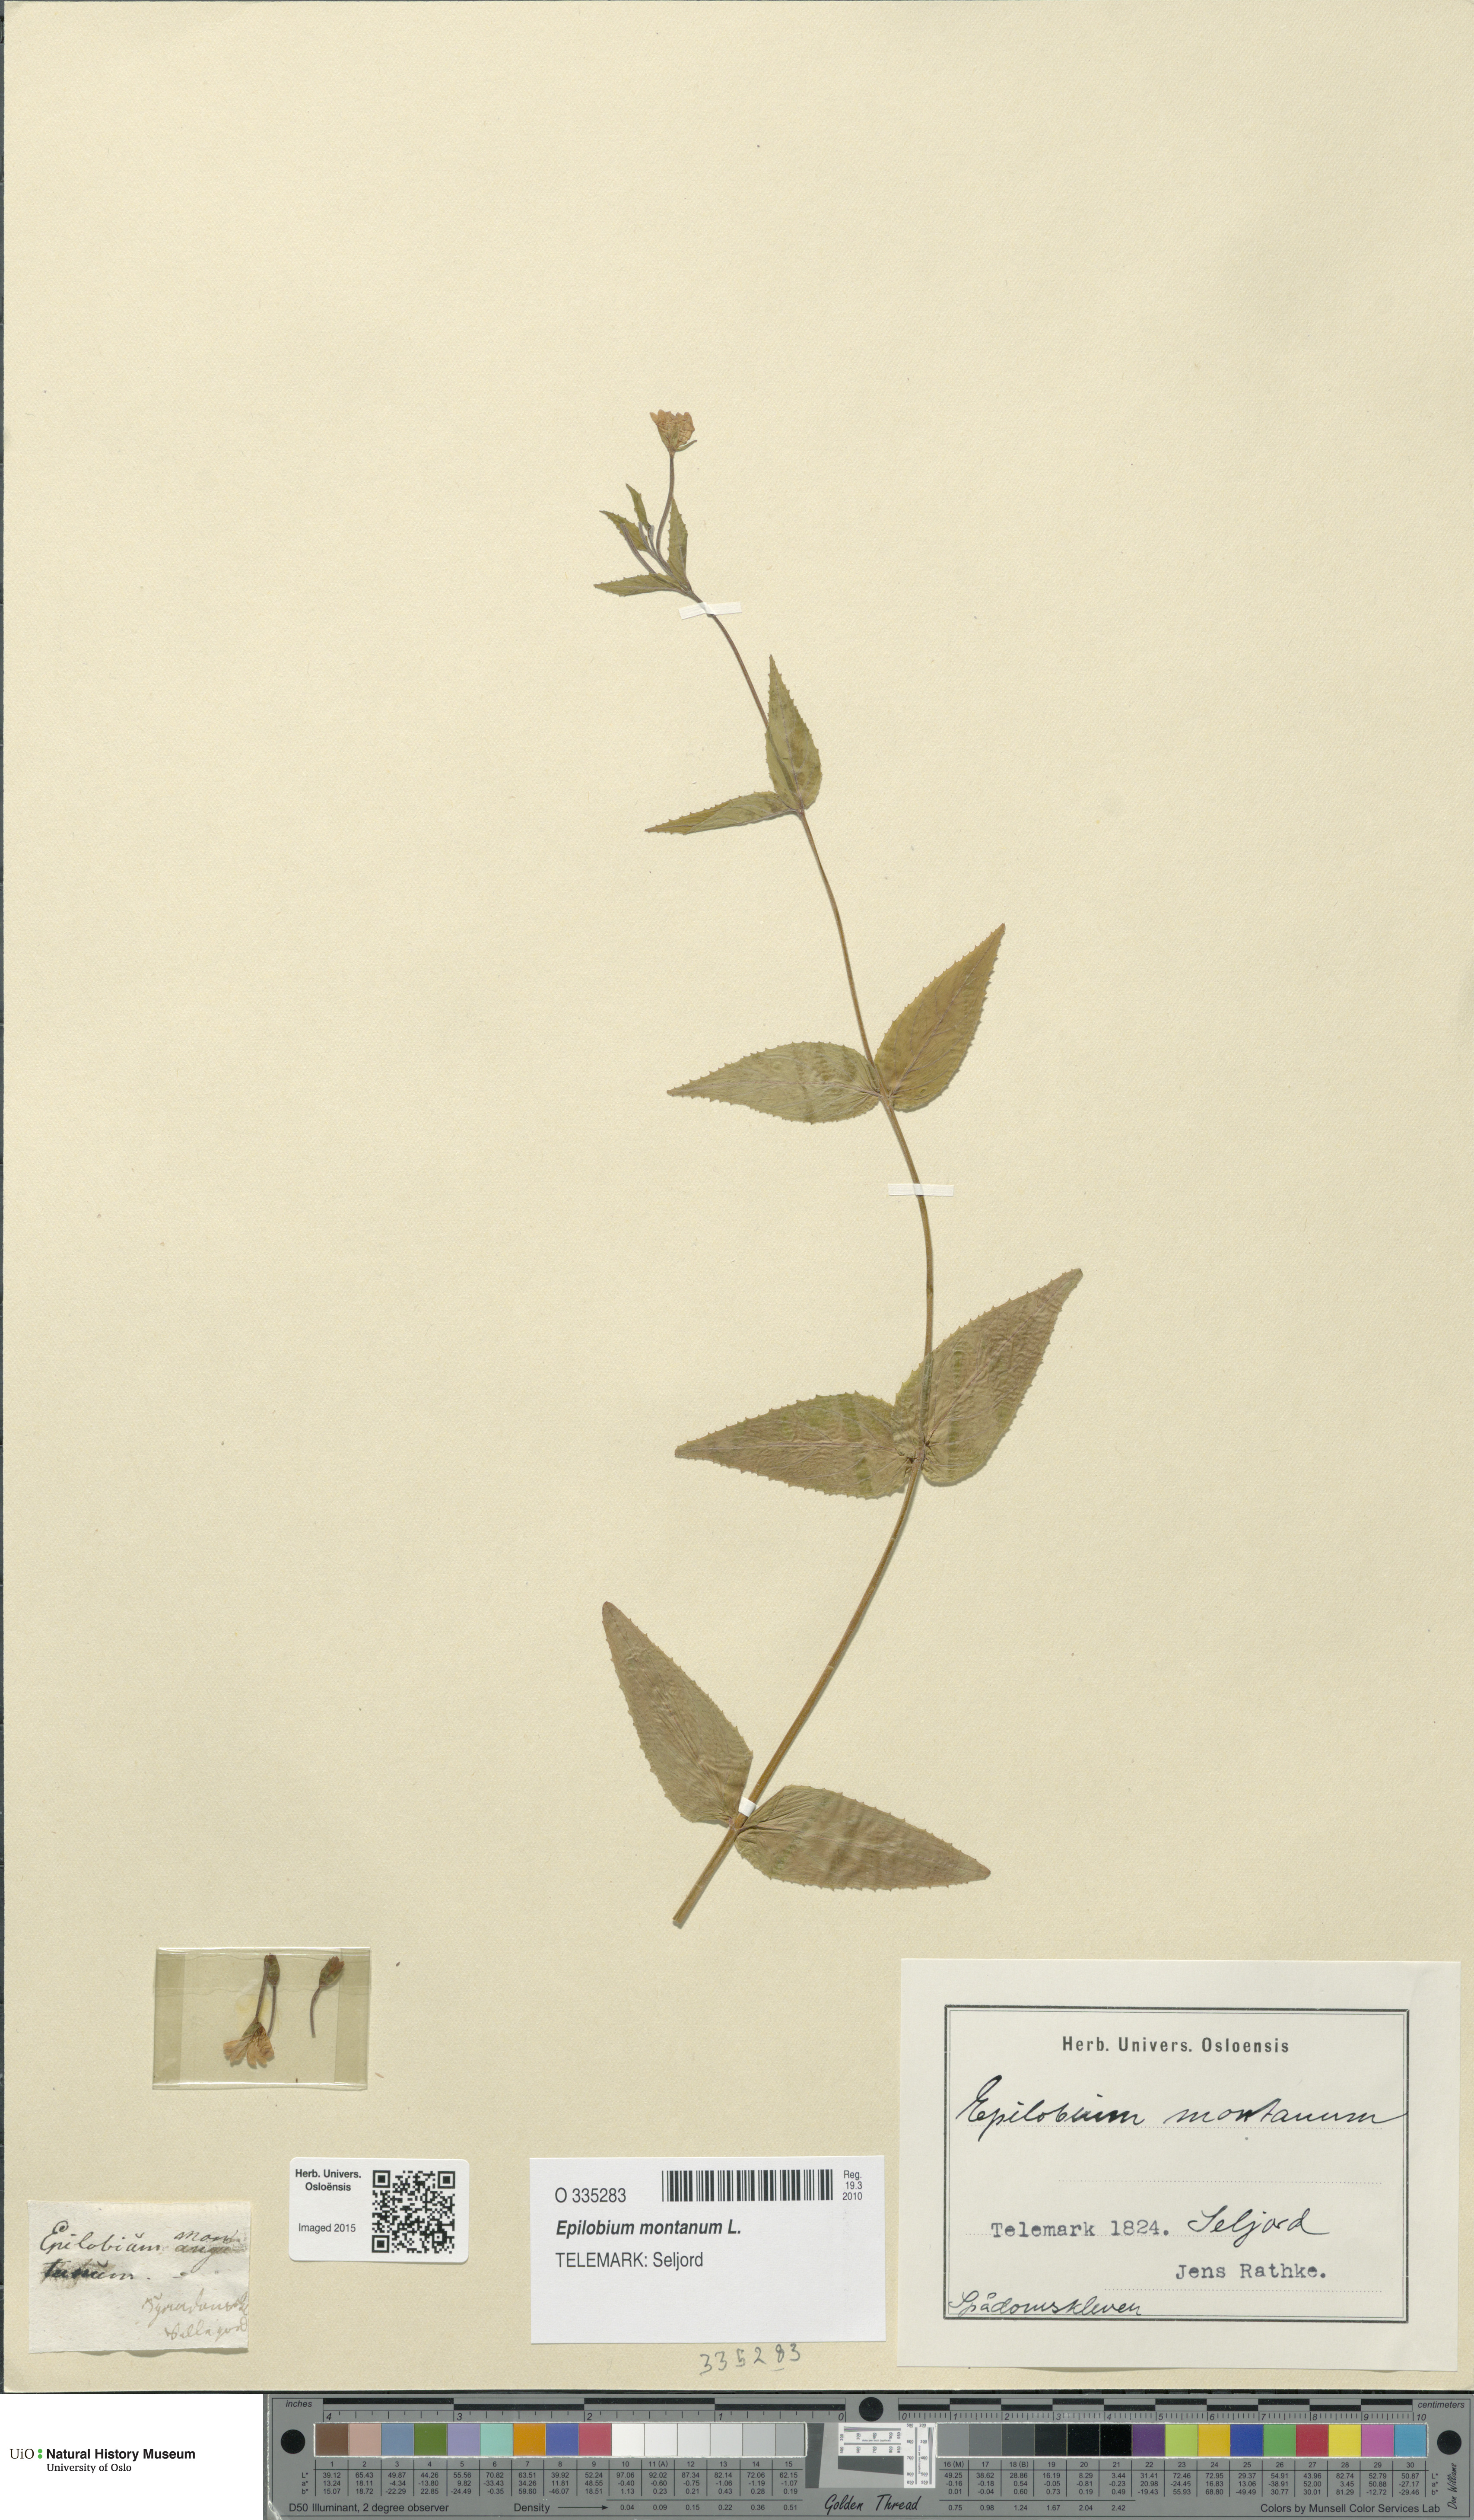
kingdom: Plantae
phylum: Tracheophyta
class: Magnoliopsida
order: Myrtales
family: Onagraceae
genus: Epilobium
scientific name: Epilobium montanum
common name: Broad-leaved willowherb
